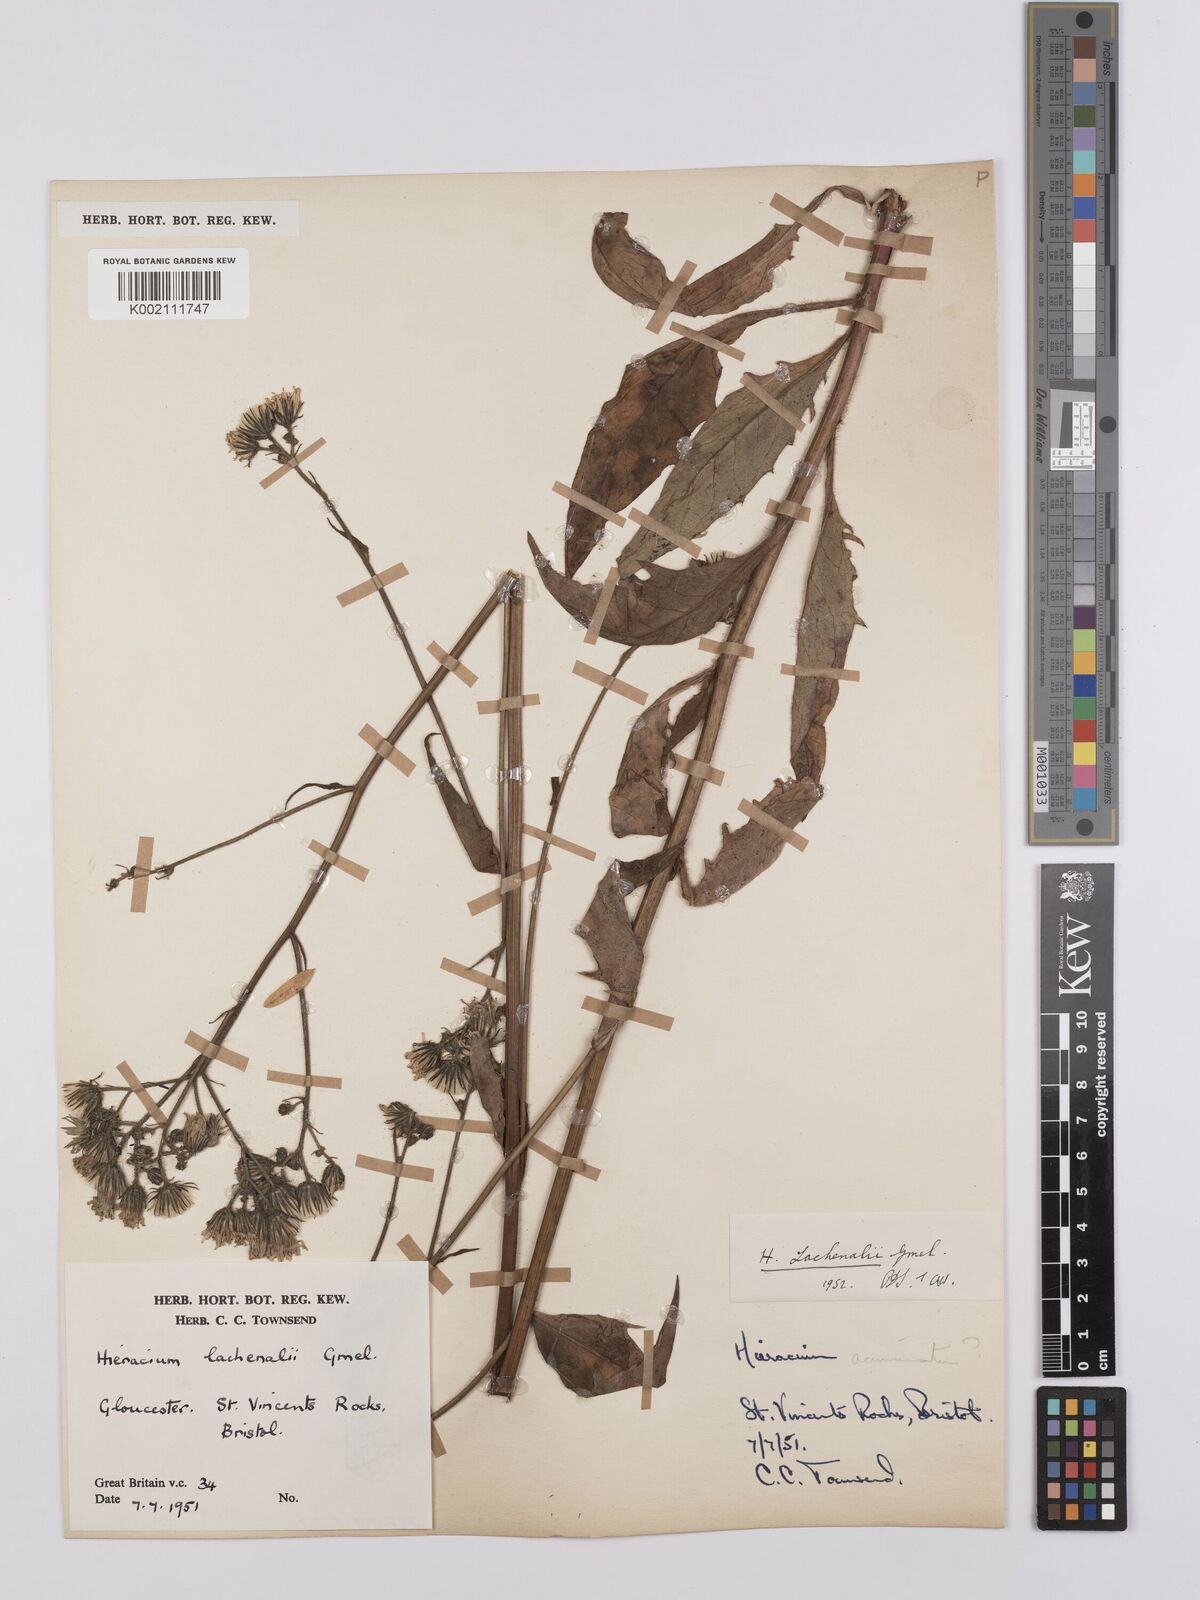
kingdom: Plantae
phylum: Tracheophyta
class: Magnoliopsida
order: Asterales
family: Asteraceae
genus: Hieracium
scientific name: Hieracium lachenalii
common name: Common hawkweed
